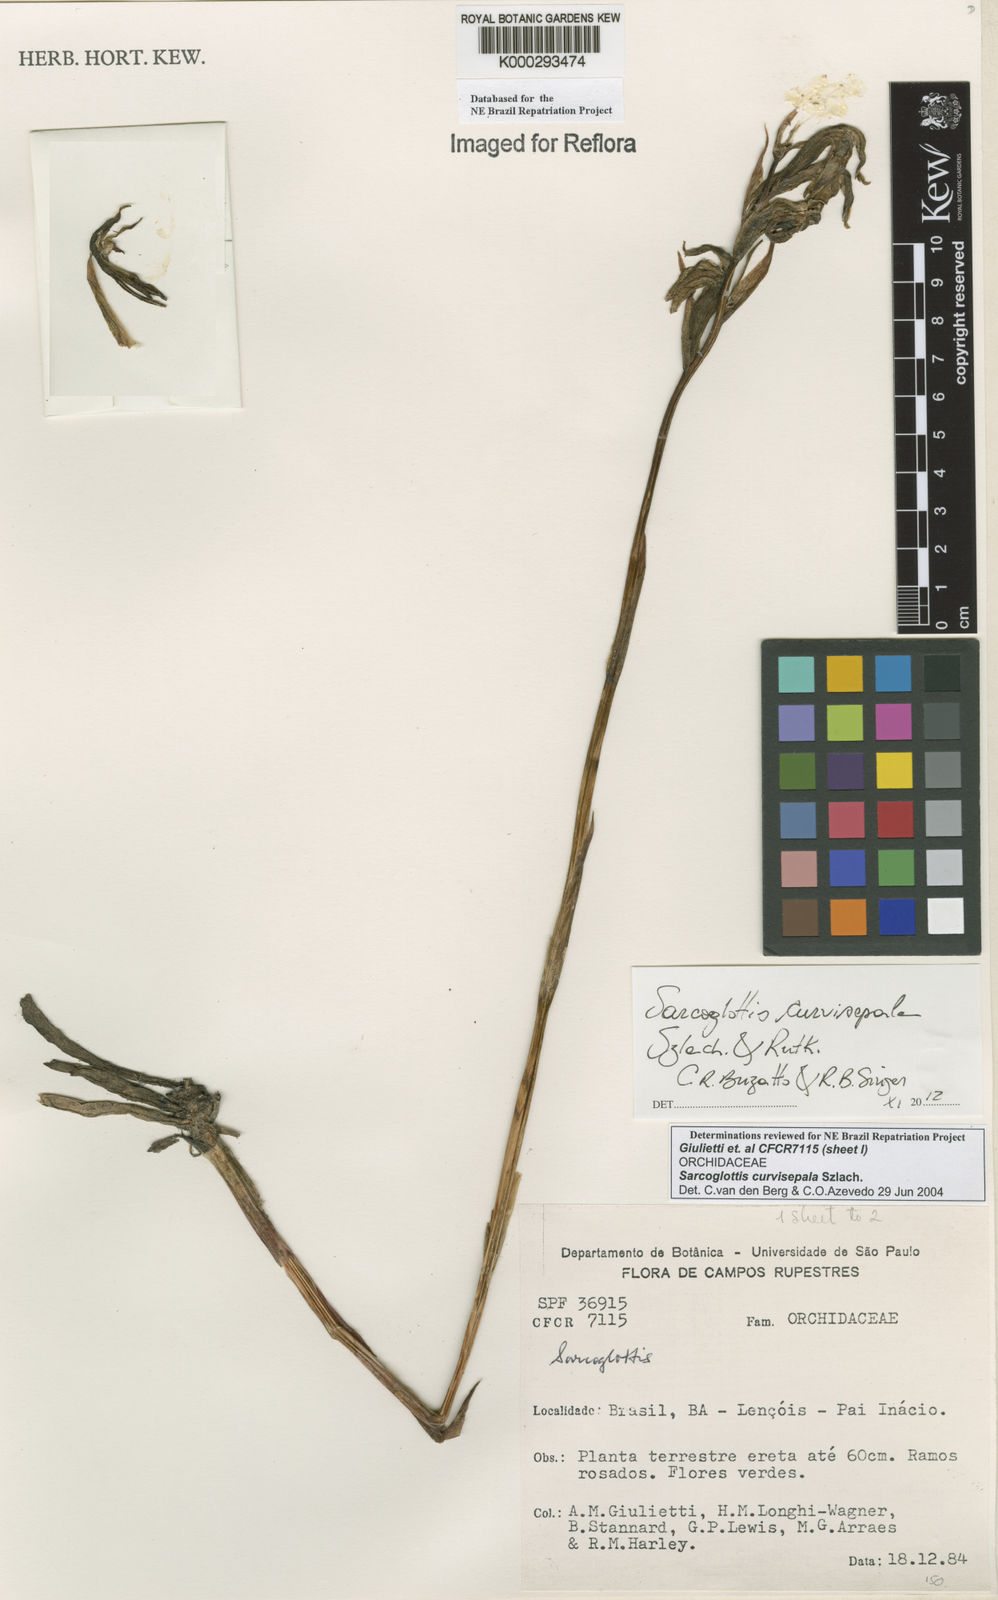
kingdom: Plantae
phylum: Tracheophyta
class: Liliopsida
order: Asparagales
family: Orchidaceae
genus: Sarcoglottis
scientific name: Sarcoglottis curvisepala
